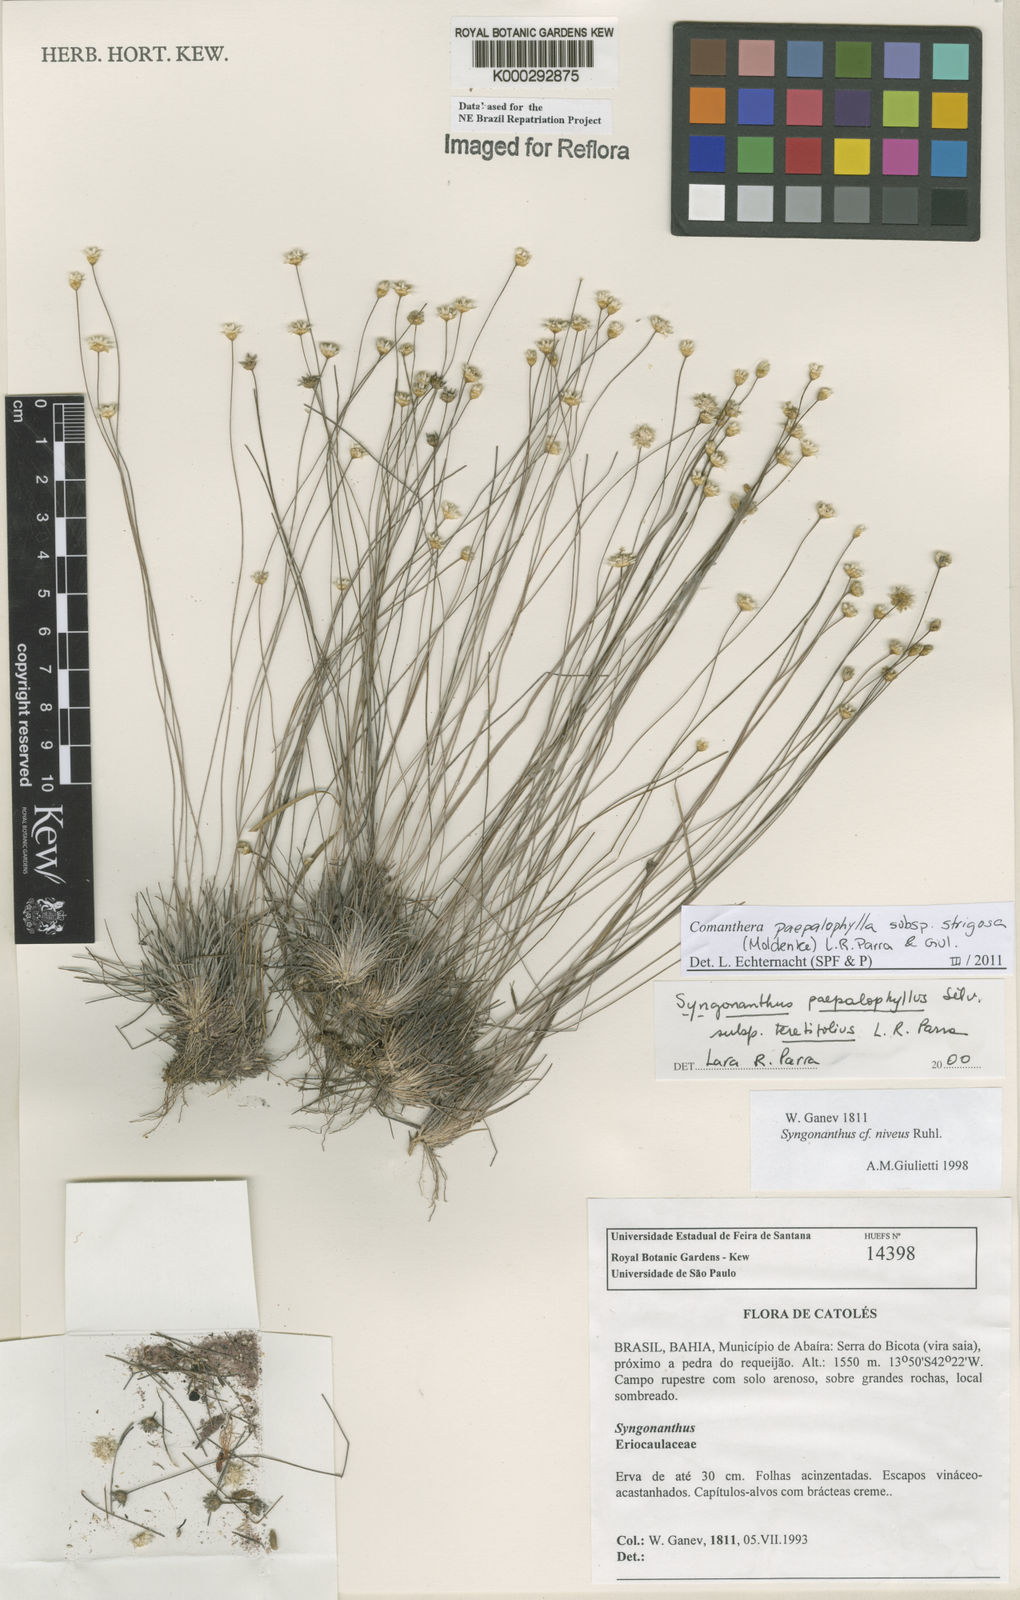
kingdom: Plantae
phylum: Tracheophyta
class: Liliopsida
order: Poales
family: Eriocaulaceae
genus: Comanthera
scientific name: Comanthera paepalophylla
